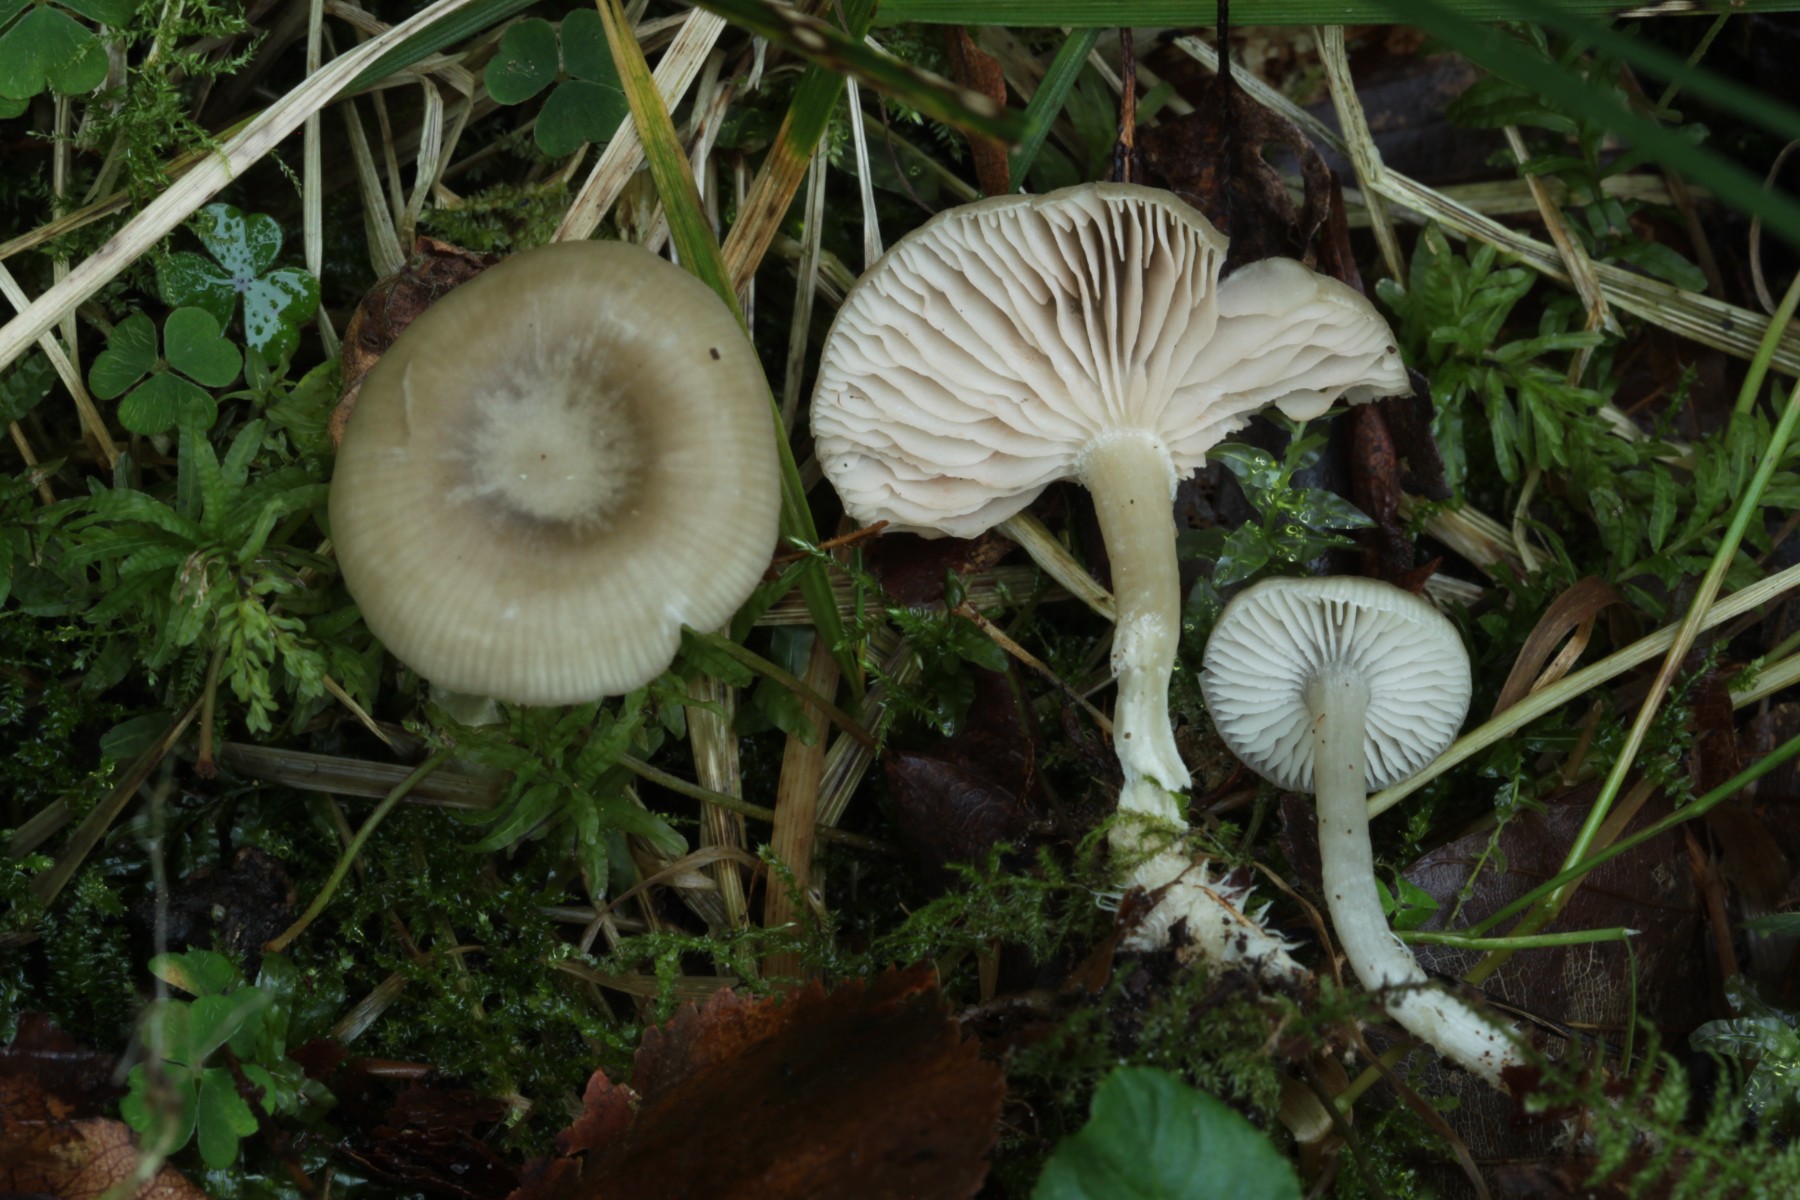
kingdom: Fungi
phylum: Basidiomycota
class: Agaricomycetes
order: Agaricales
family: Entolomataceae
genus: Entoloma
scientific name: Entoloma
